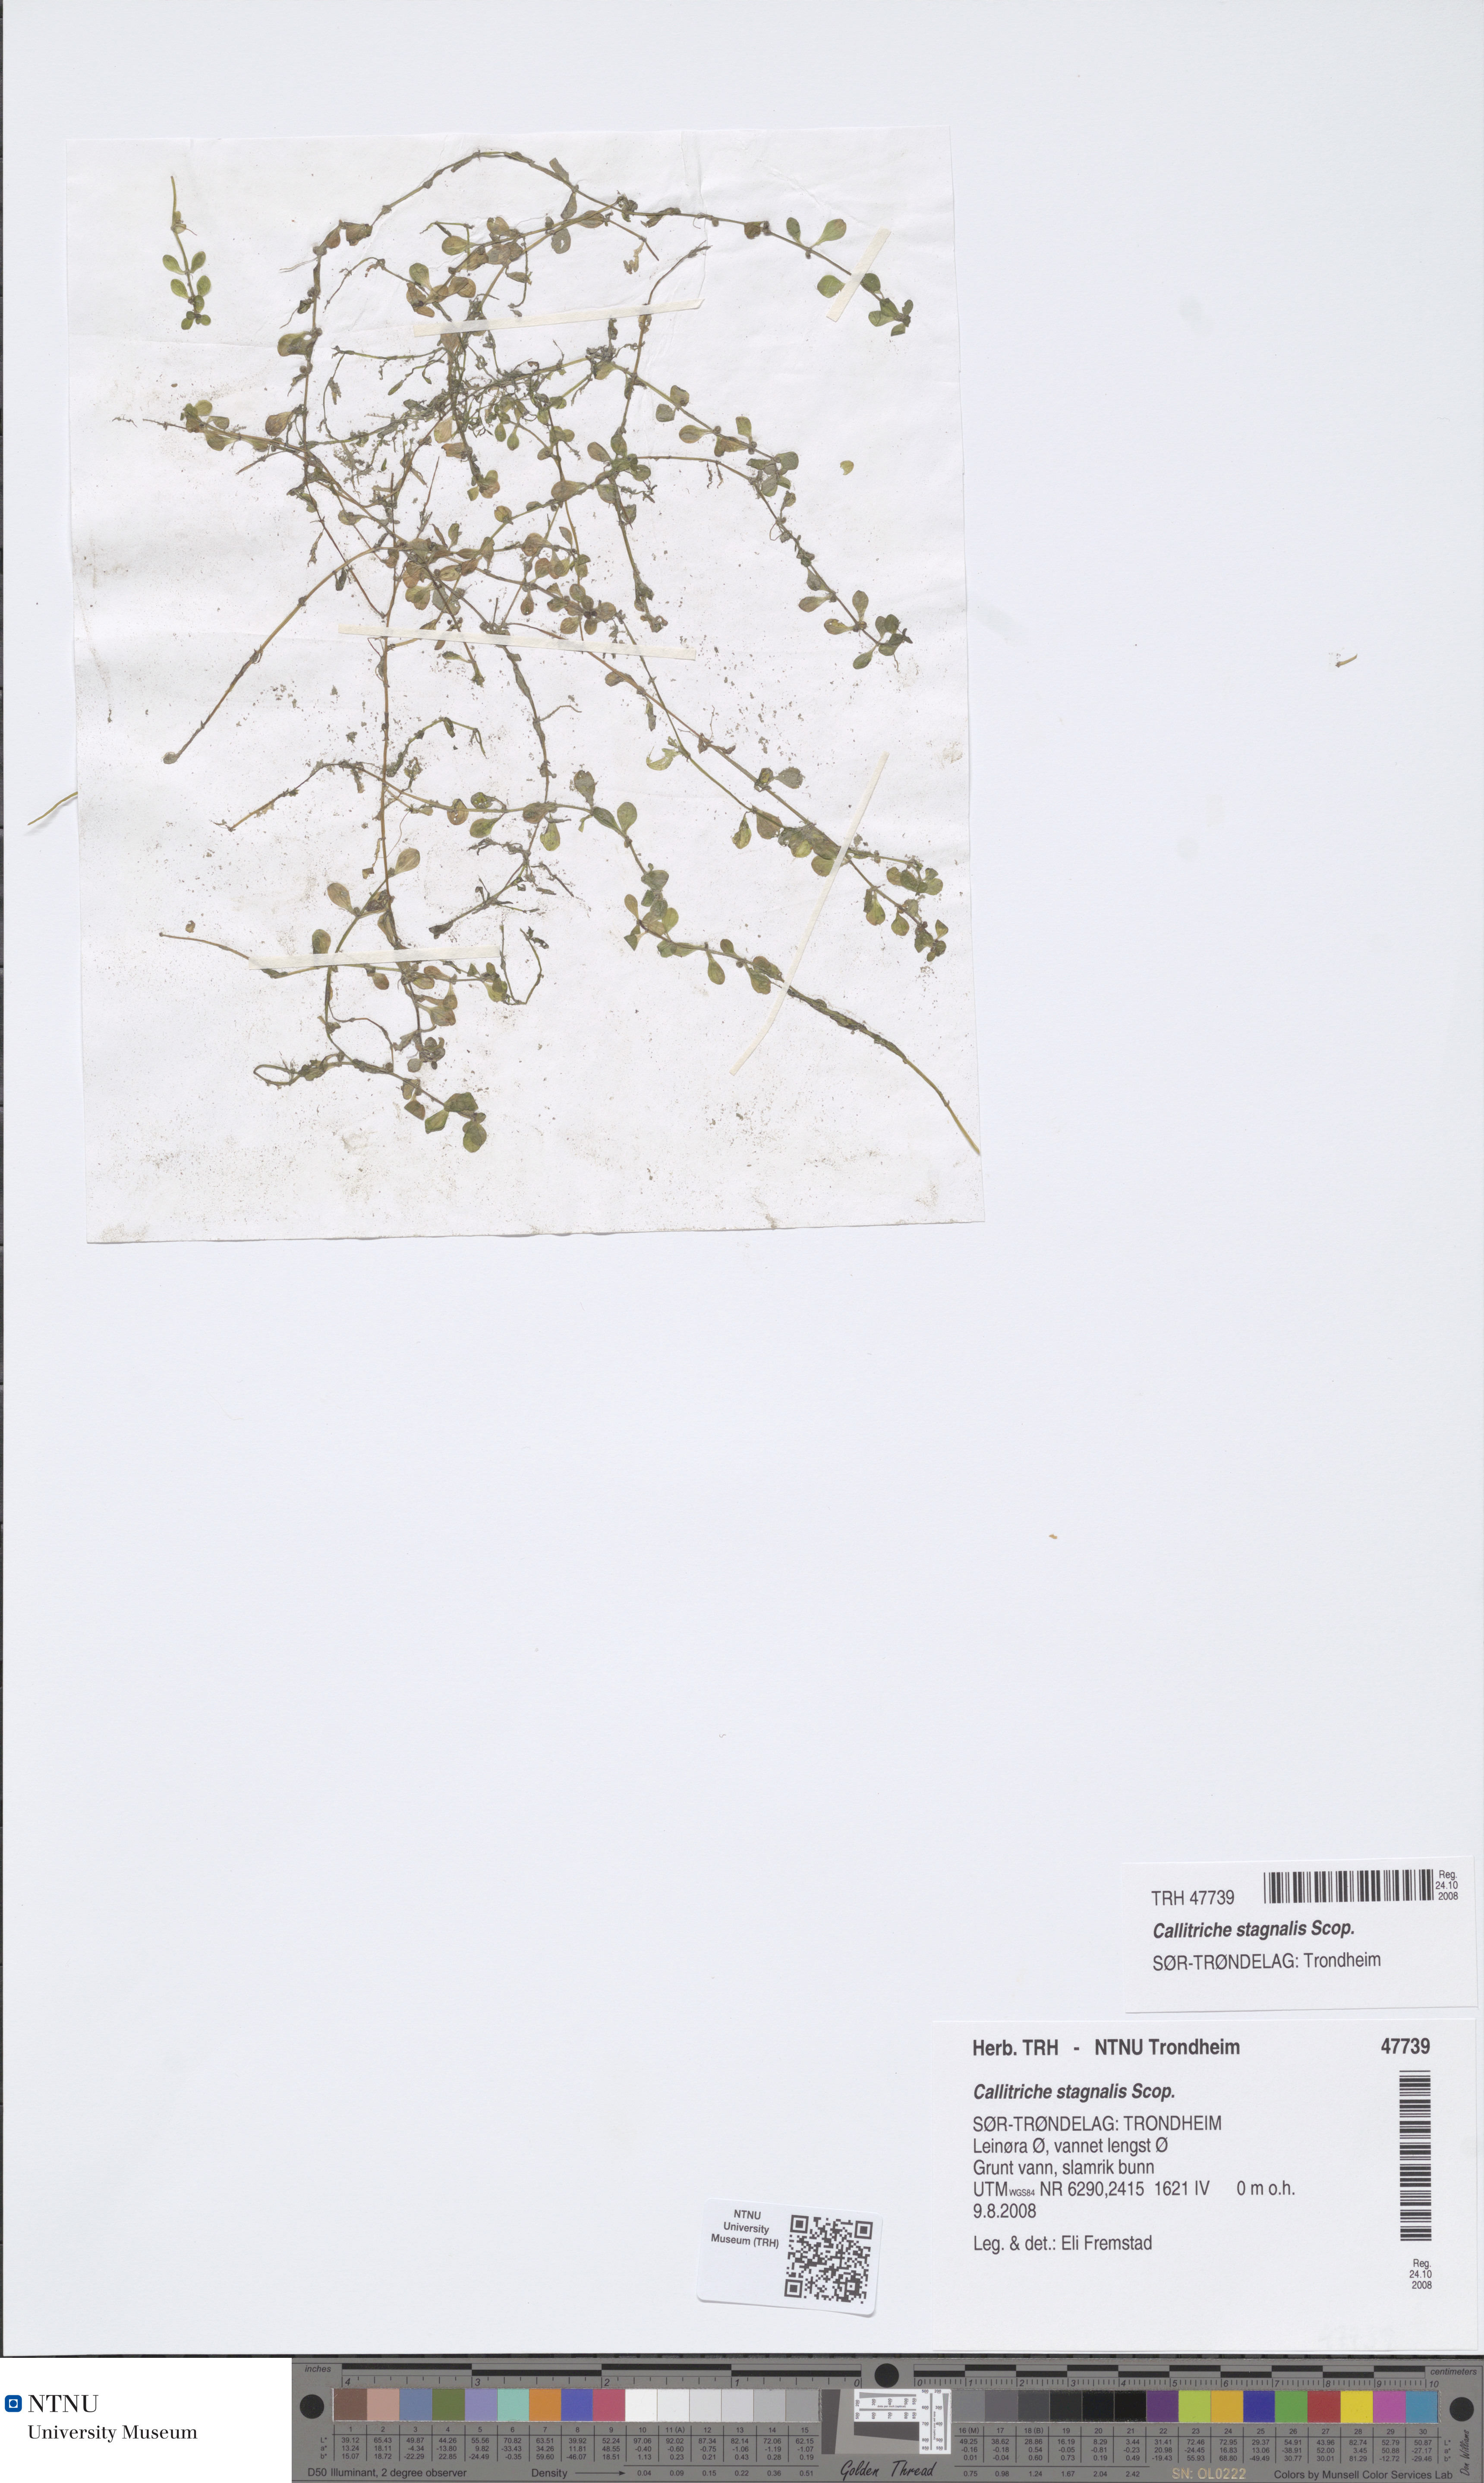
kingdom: Plantae
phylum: Tracheophyta
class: Magnoliopsida
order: Lamiales
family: Plantaginaceae
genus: Callitriche
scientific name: Callitriche stagnalis
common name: Common water-starwort
